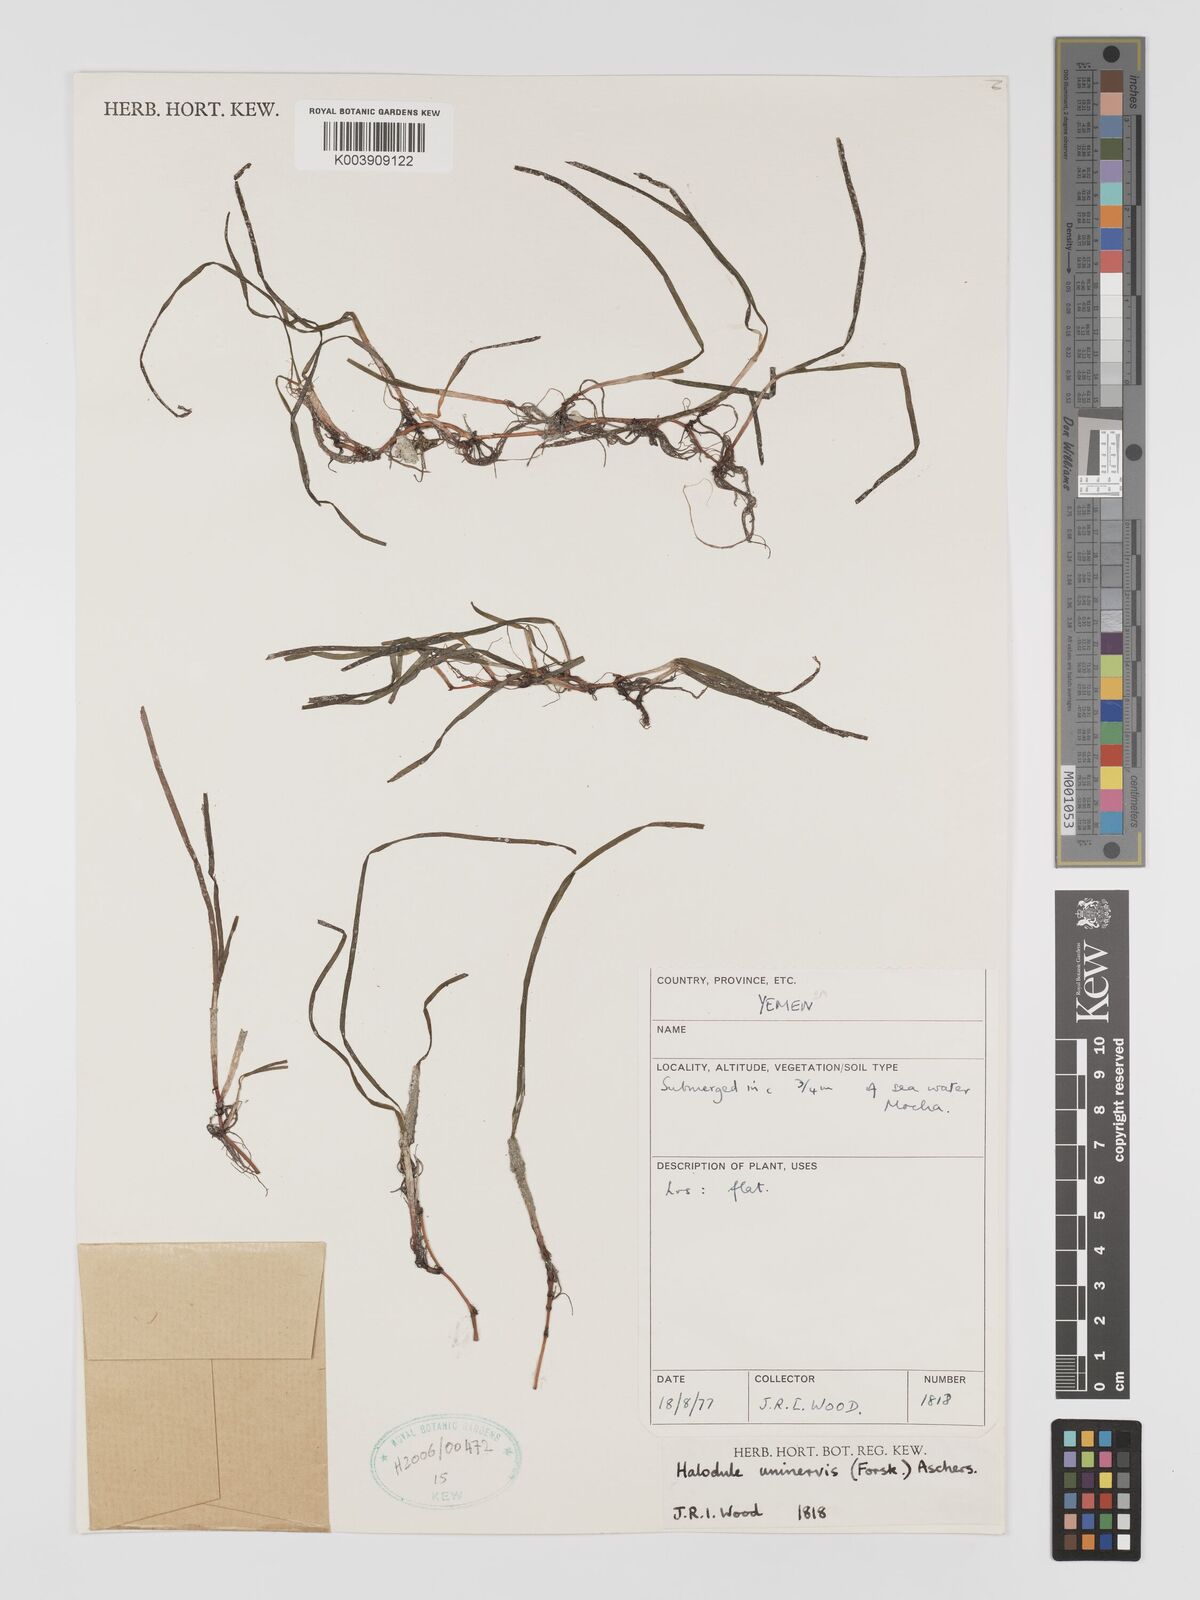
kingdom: Plantae
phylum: Tracheophyta
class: Liliopsida
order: Alismatales
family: Cymodoceaceae
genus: Halodule
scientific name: Halodule uninervis
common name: Narrowleaf seagrass
